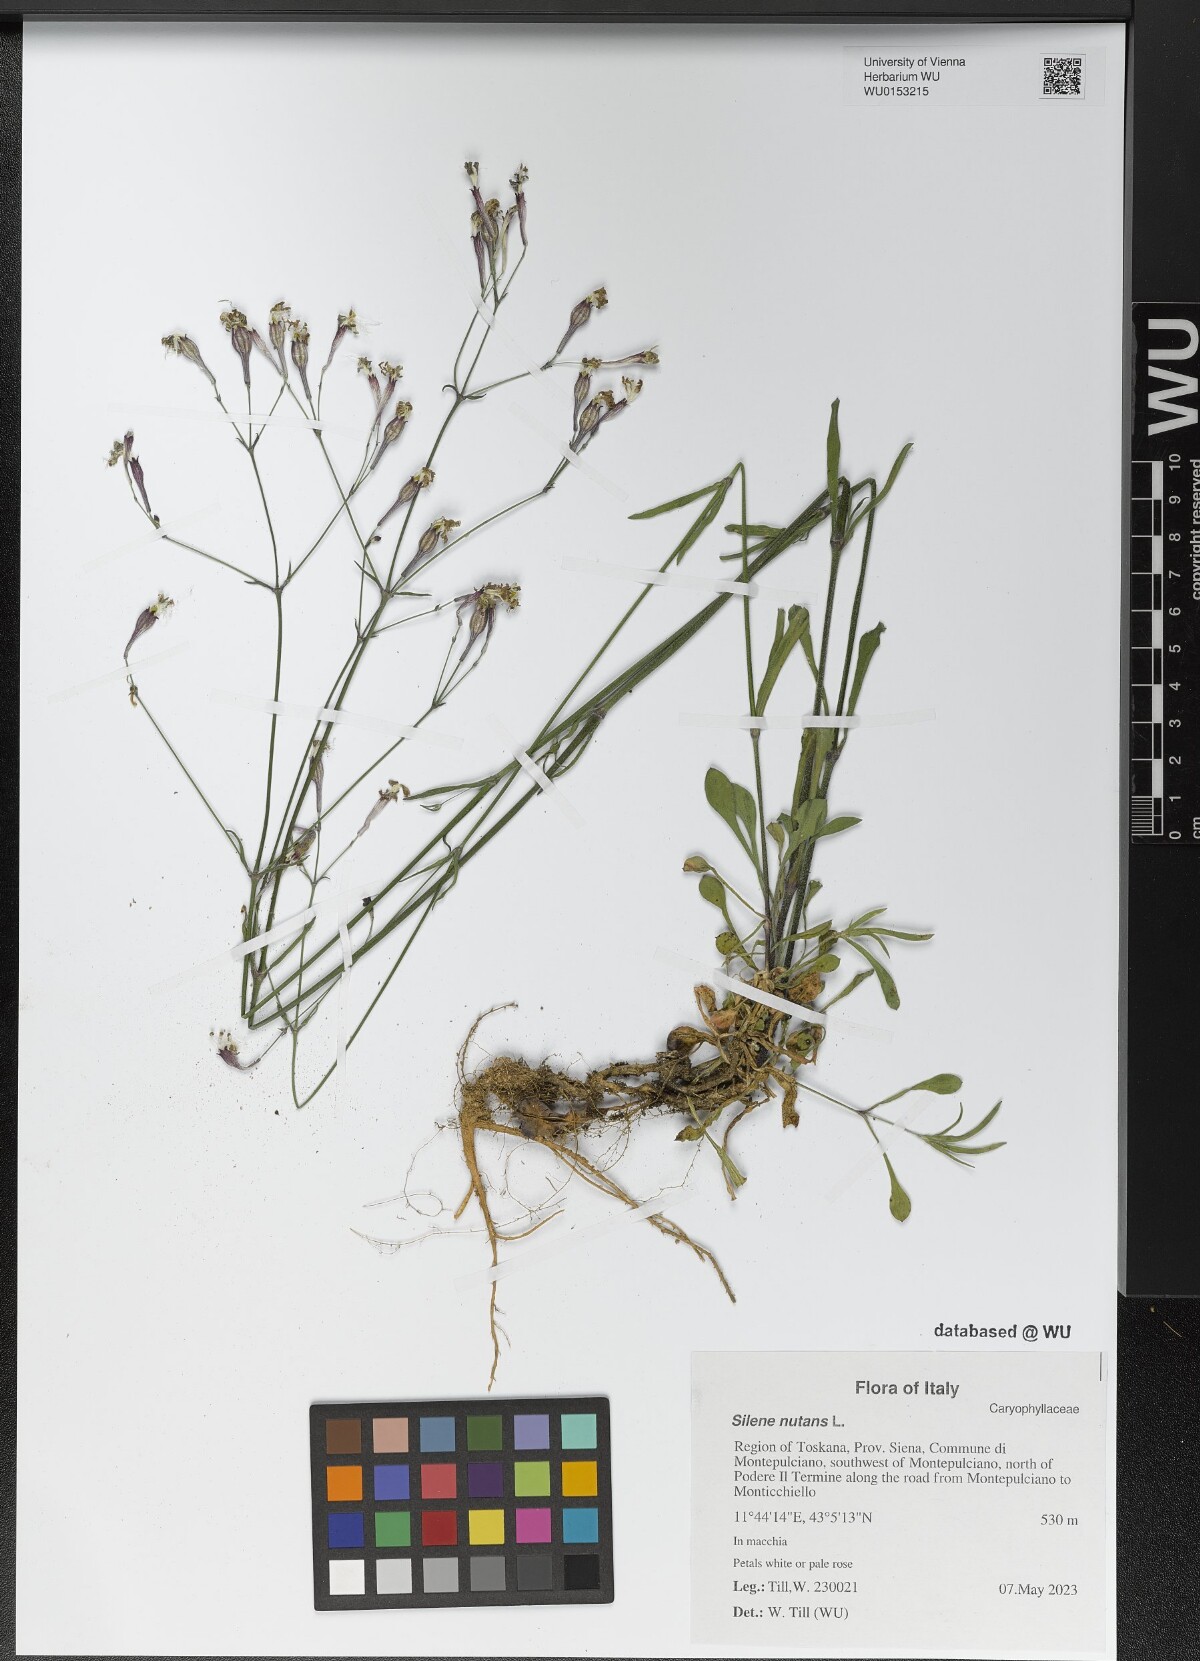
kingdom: Plantae
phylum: Tracheophyta
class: Magnoliopsida
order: Caryophyllales
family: Caryophyllaceae
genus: Silene
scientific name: Silene nutans
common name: Nottingham catchfly
